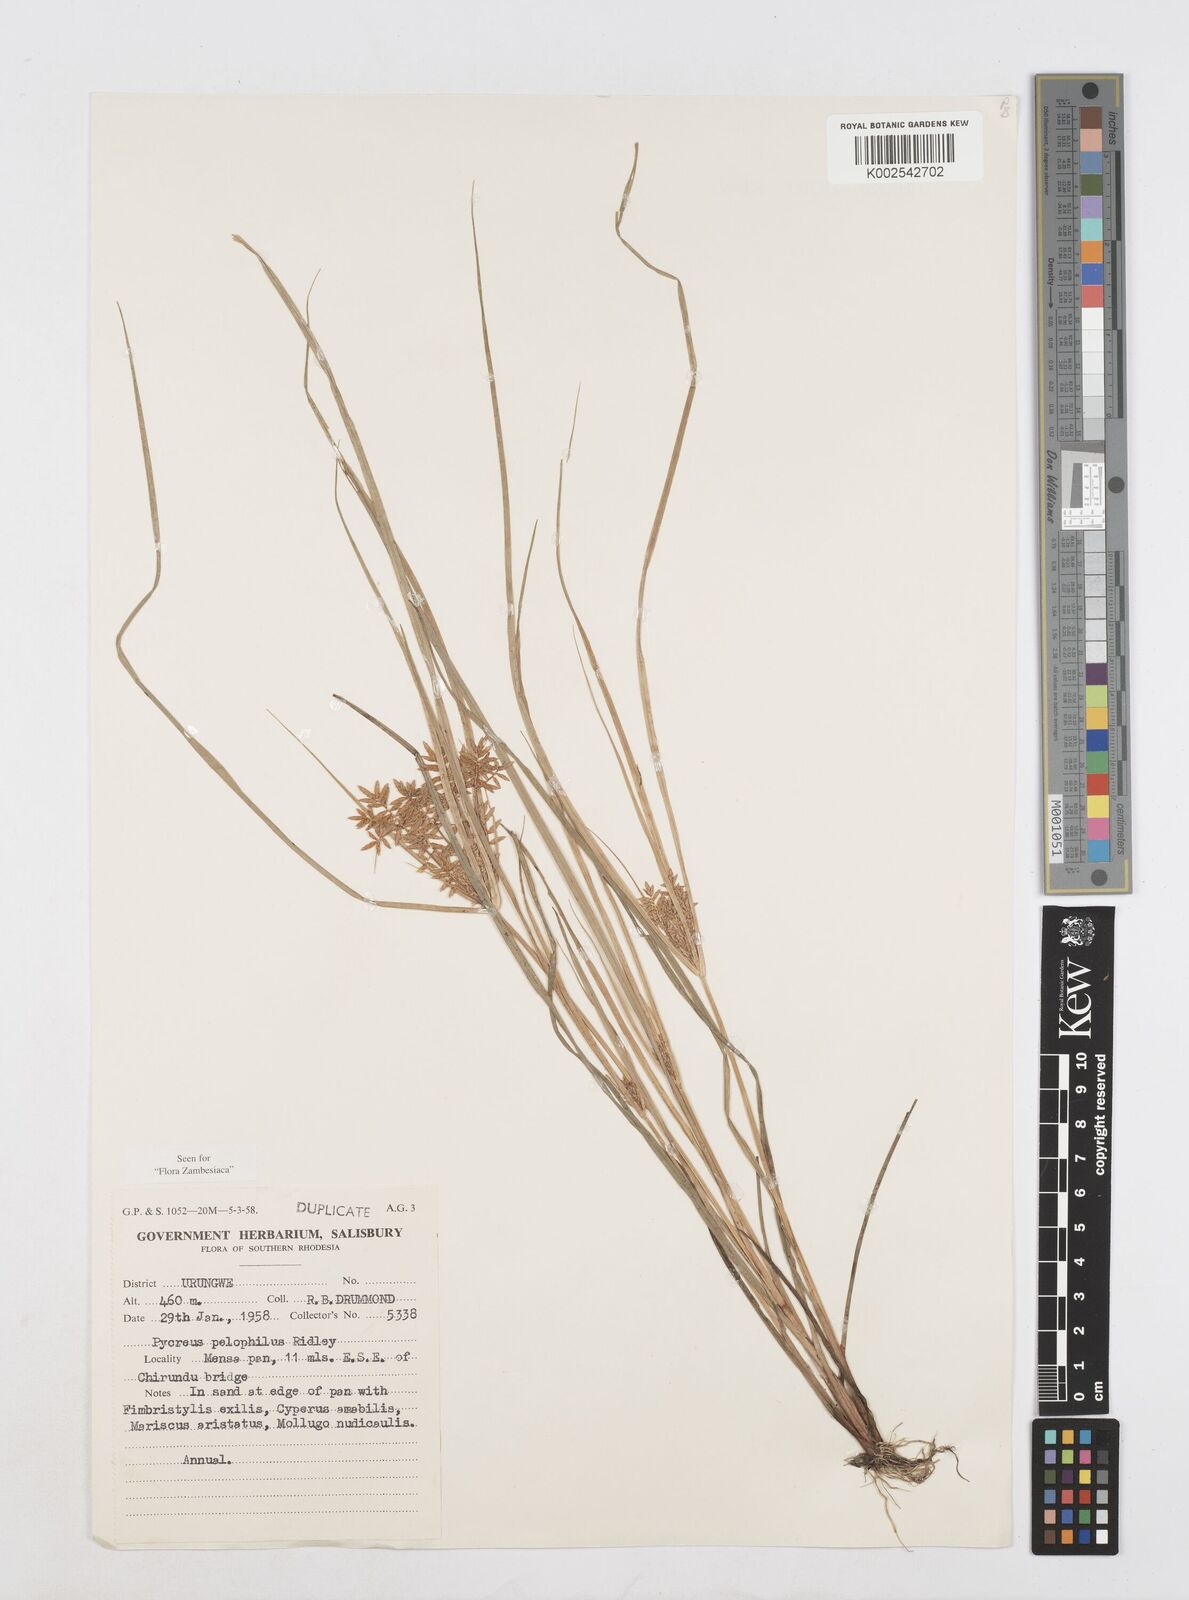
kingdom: Plantae
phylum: Tracheophyta
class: Liliopsida
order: Poales
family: Cyperaceae
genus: Cyperus
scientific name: Cyperus pelophilus
